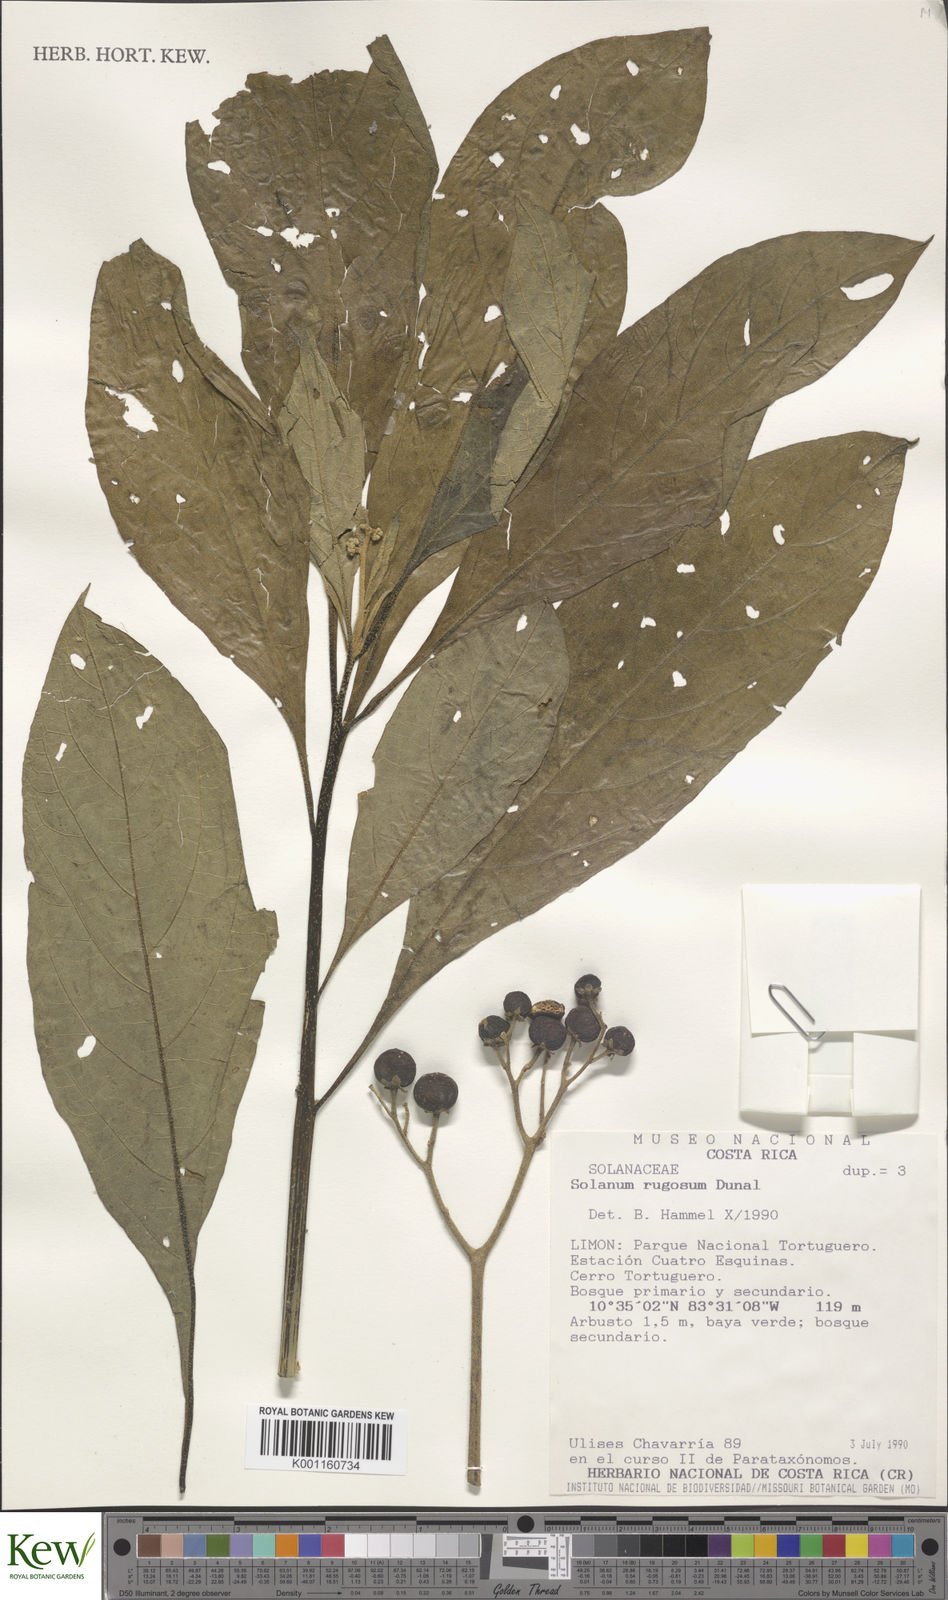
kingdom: Plantae
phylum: Tracheophyta
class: Magnoliopsida
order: Solanales
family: Solanaceae
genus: Solanum
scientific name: Solanum rugosum
